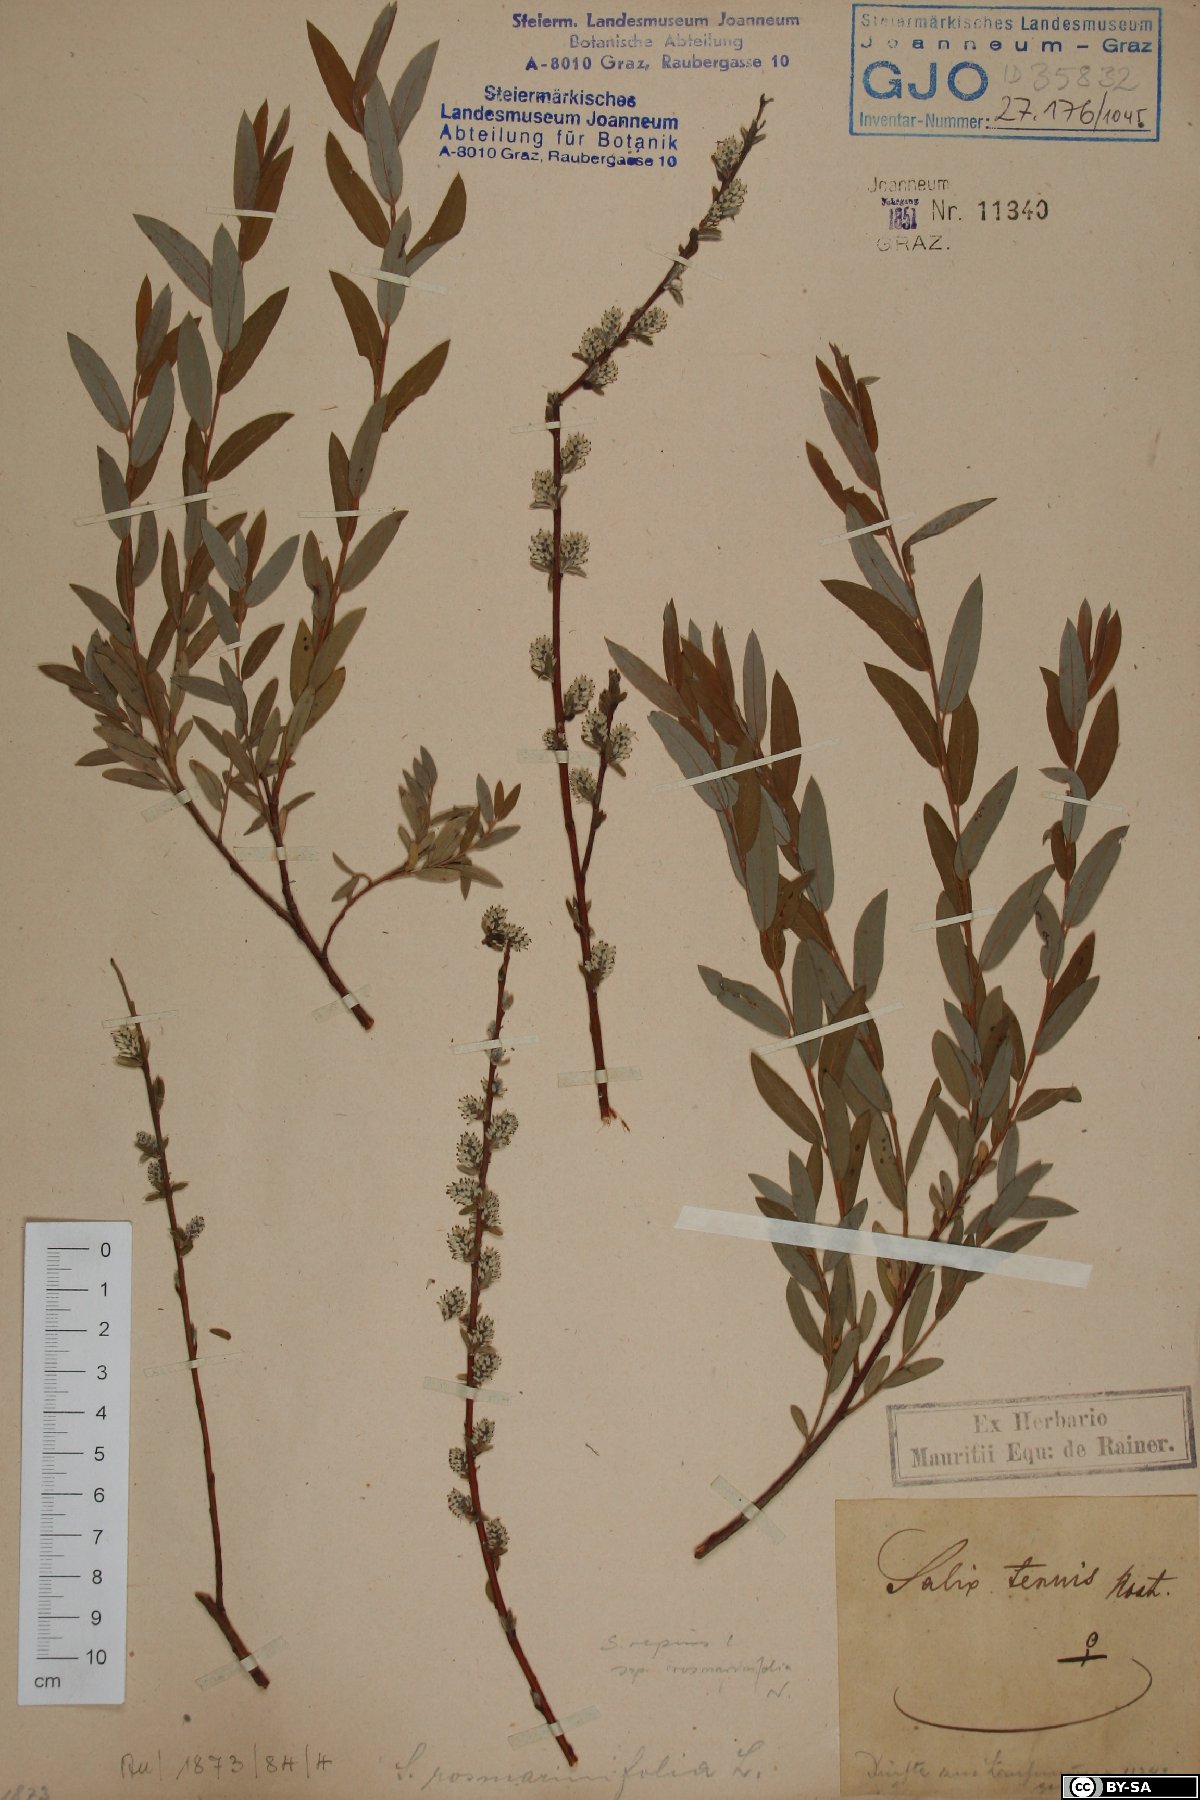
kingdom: Plantae
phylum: Tracheophyta
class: Magnoliopsida
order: Malpighiales
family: Salicaceae
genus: Salix
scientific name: Salix repens
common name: Creeping willow
